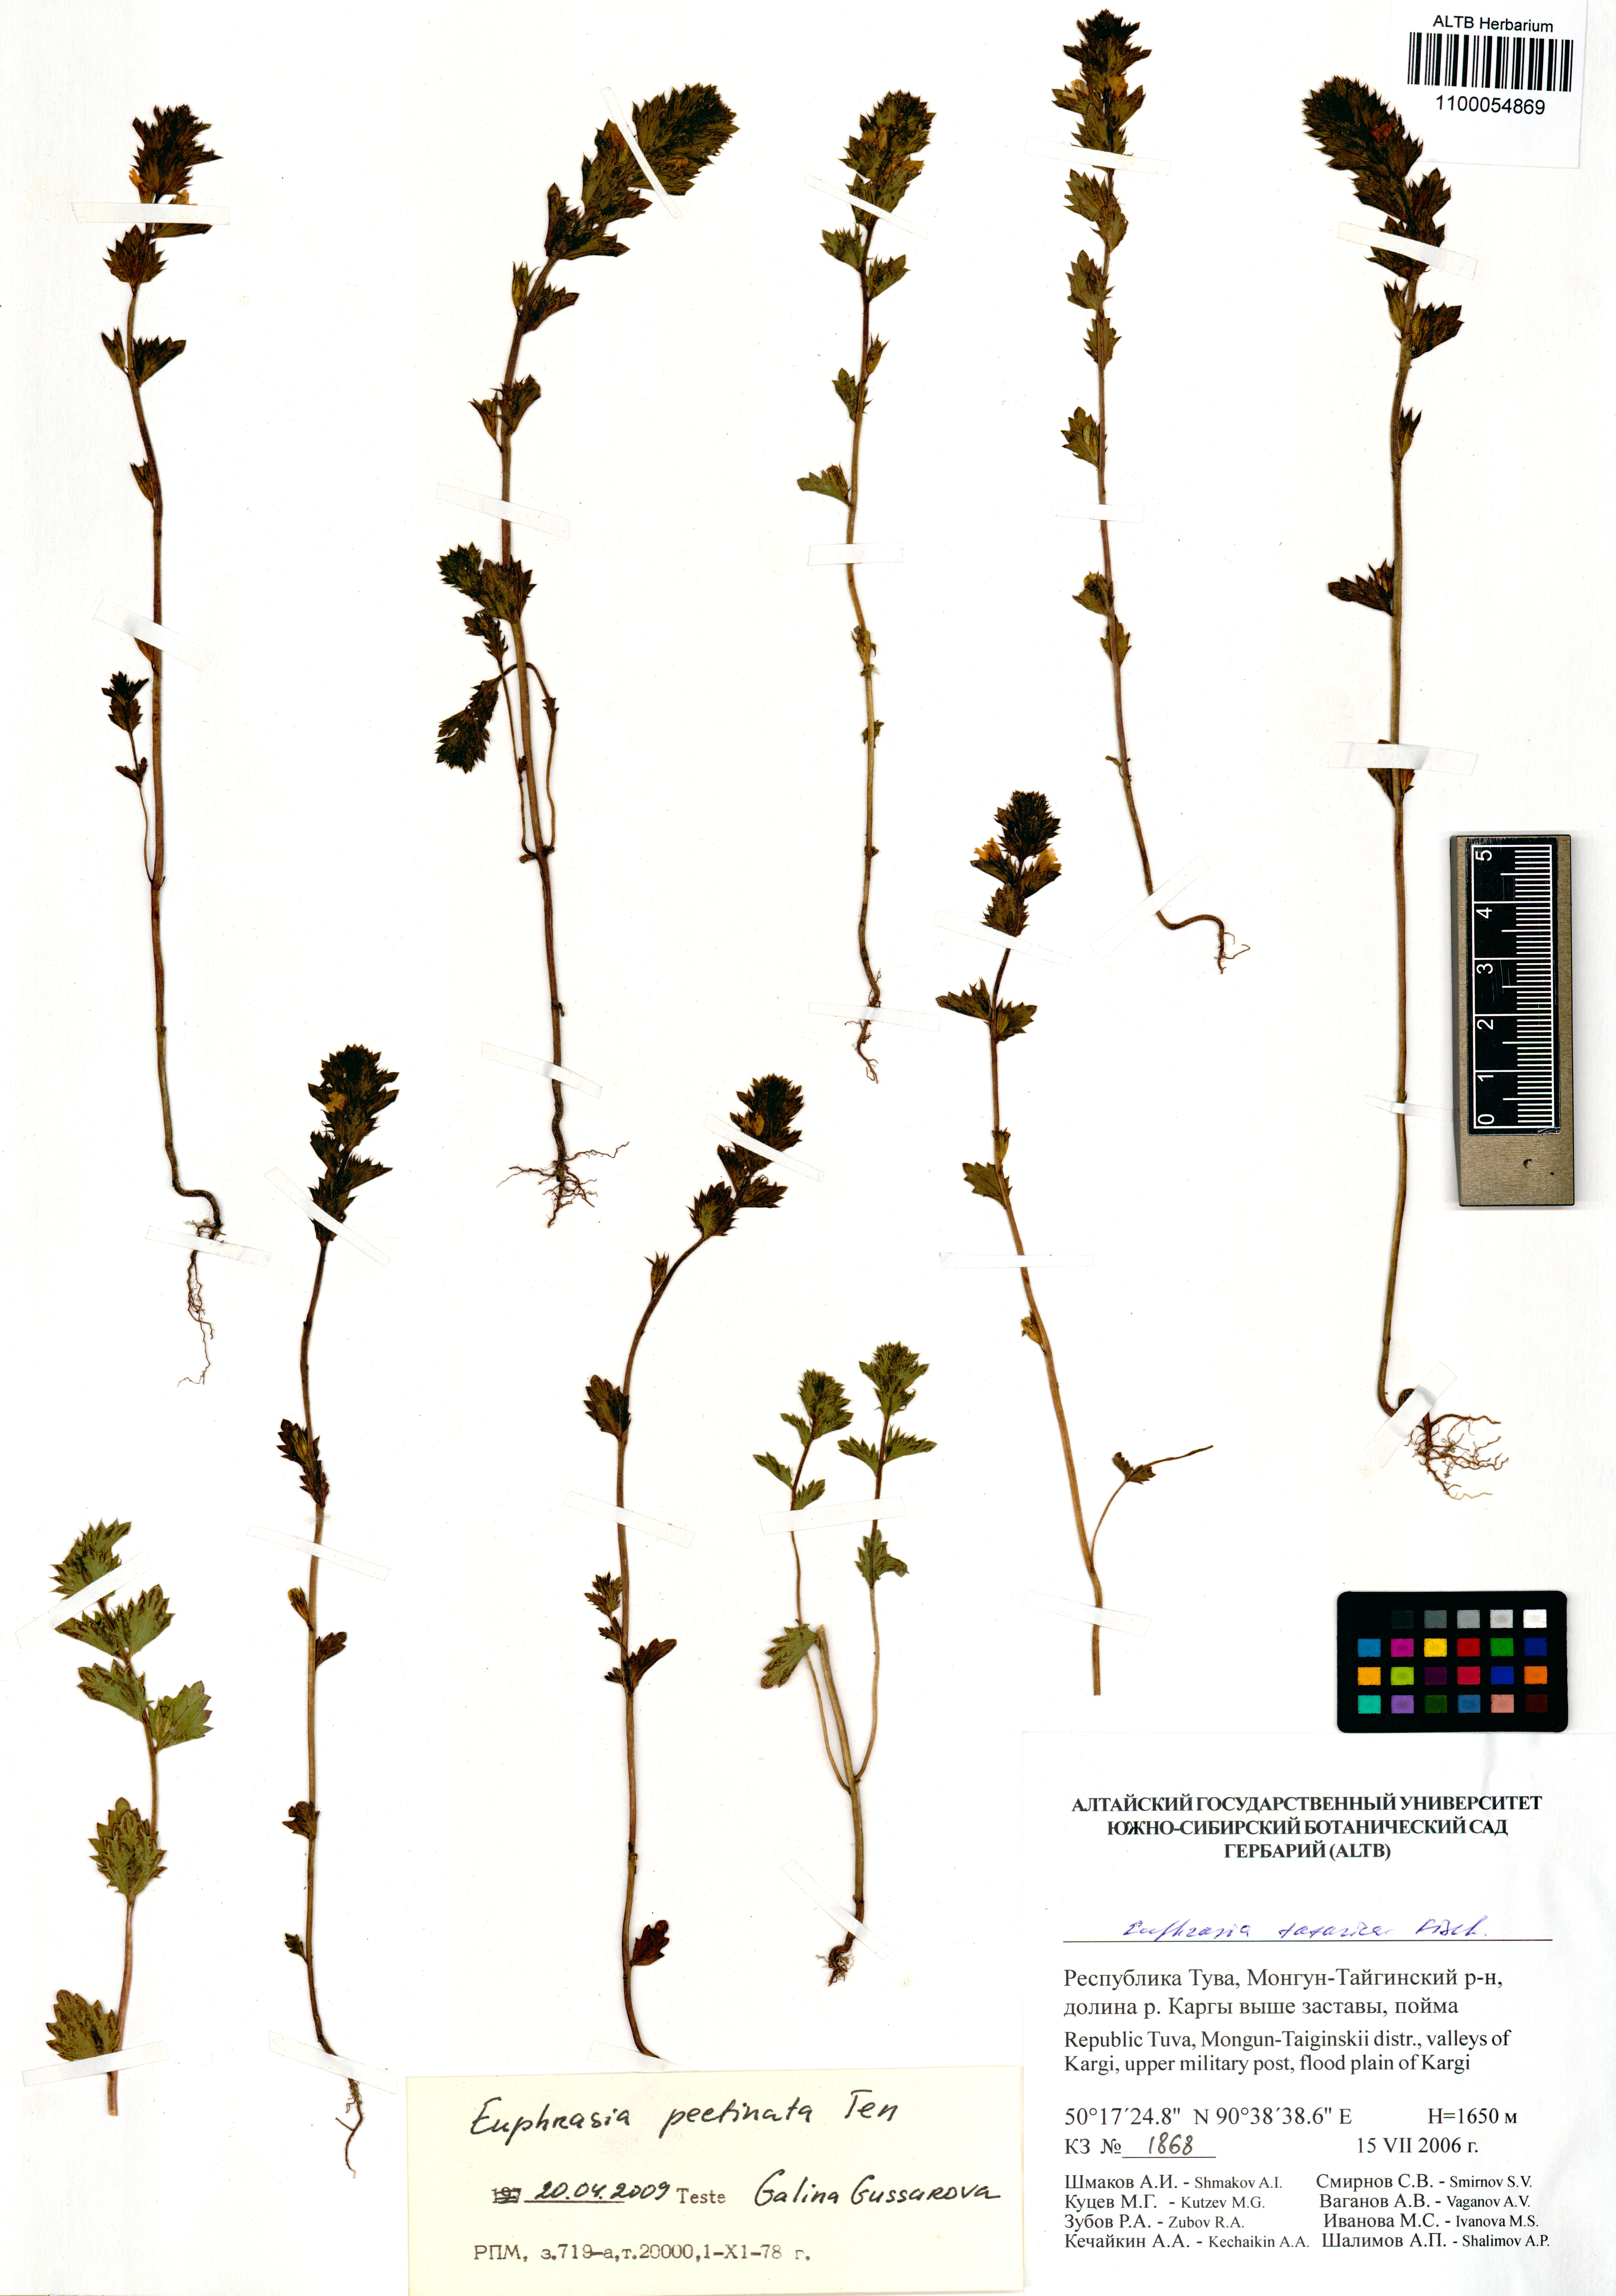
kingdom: Plantae
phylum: Tracheophyta
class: Magnoliopsida
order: Lamiales
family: Orobanchaceae
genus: Euphrasia
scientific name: Euphrasia pectinata
